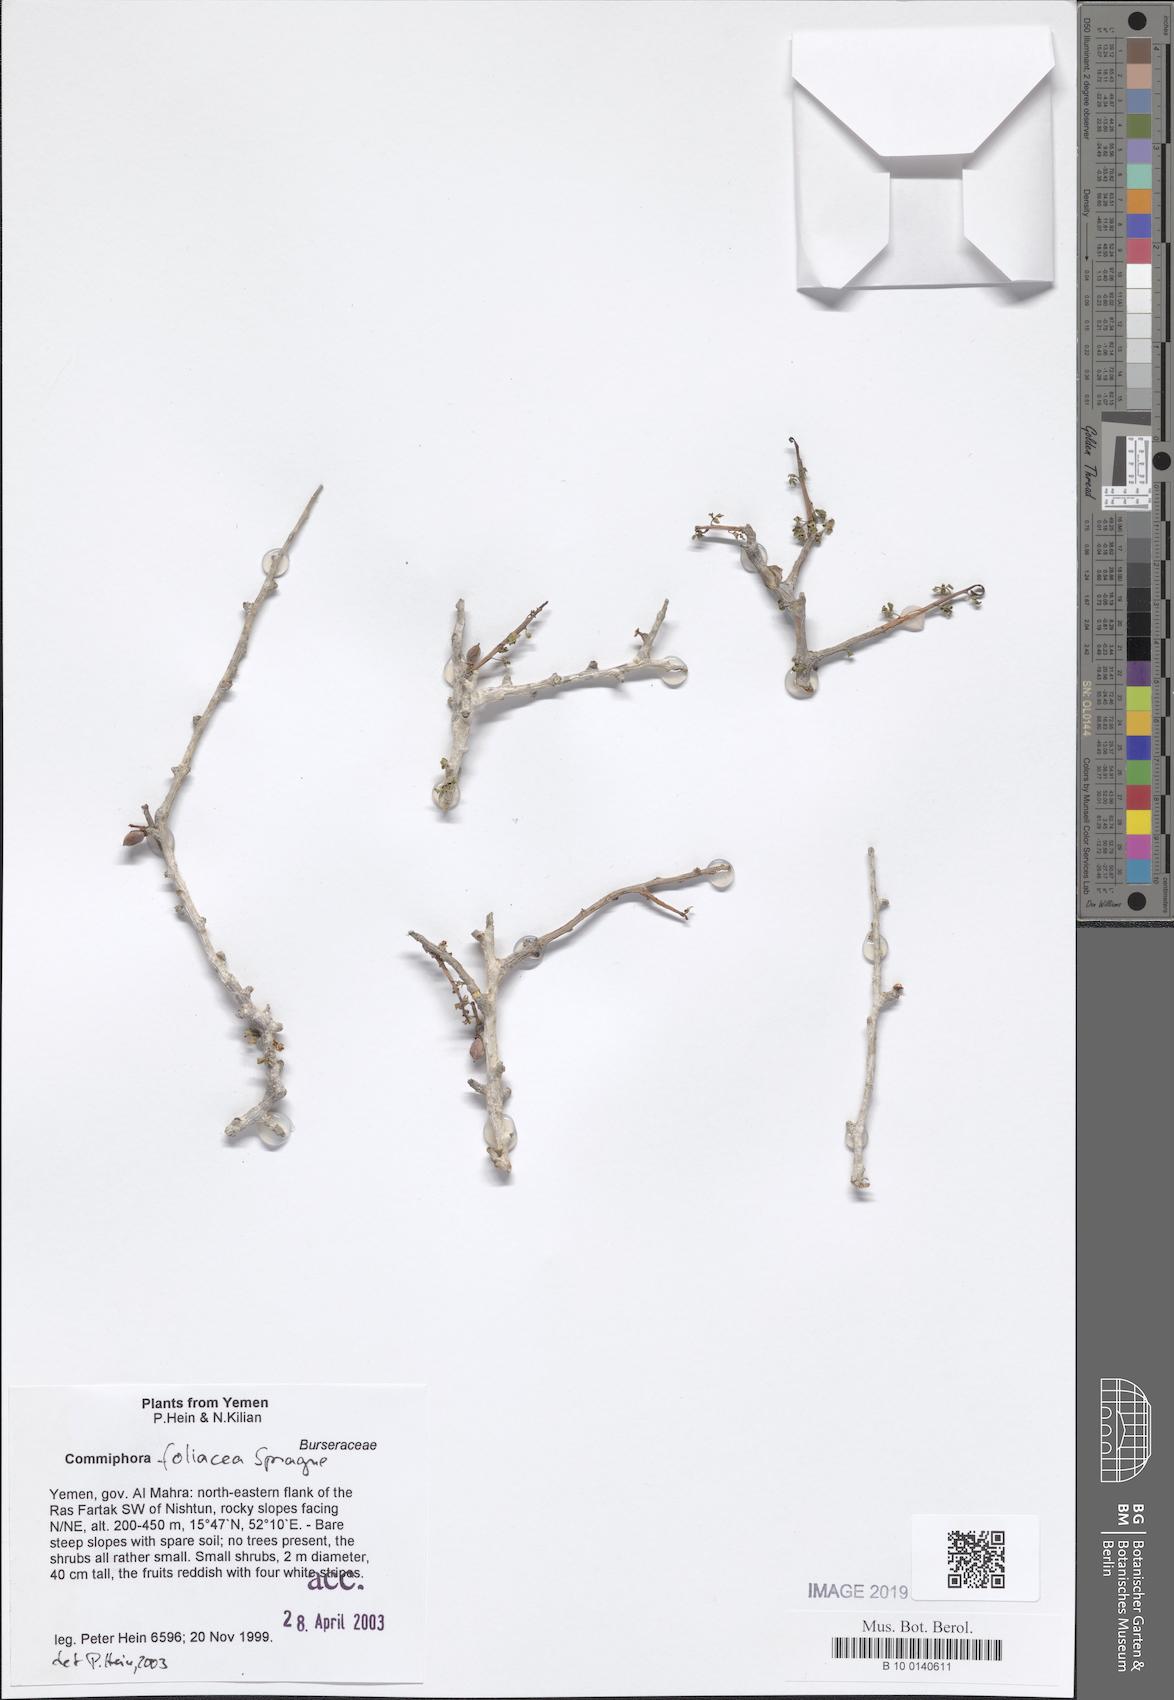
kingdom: Plantae
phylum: Tracheophyta
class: Magnoliopsida
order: Sapindales
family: Burseraceae
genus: Commiphora
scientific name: Commiphora foliacea
